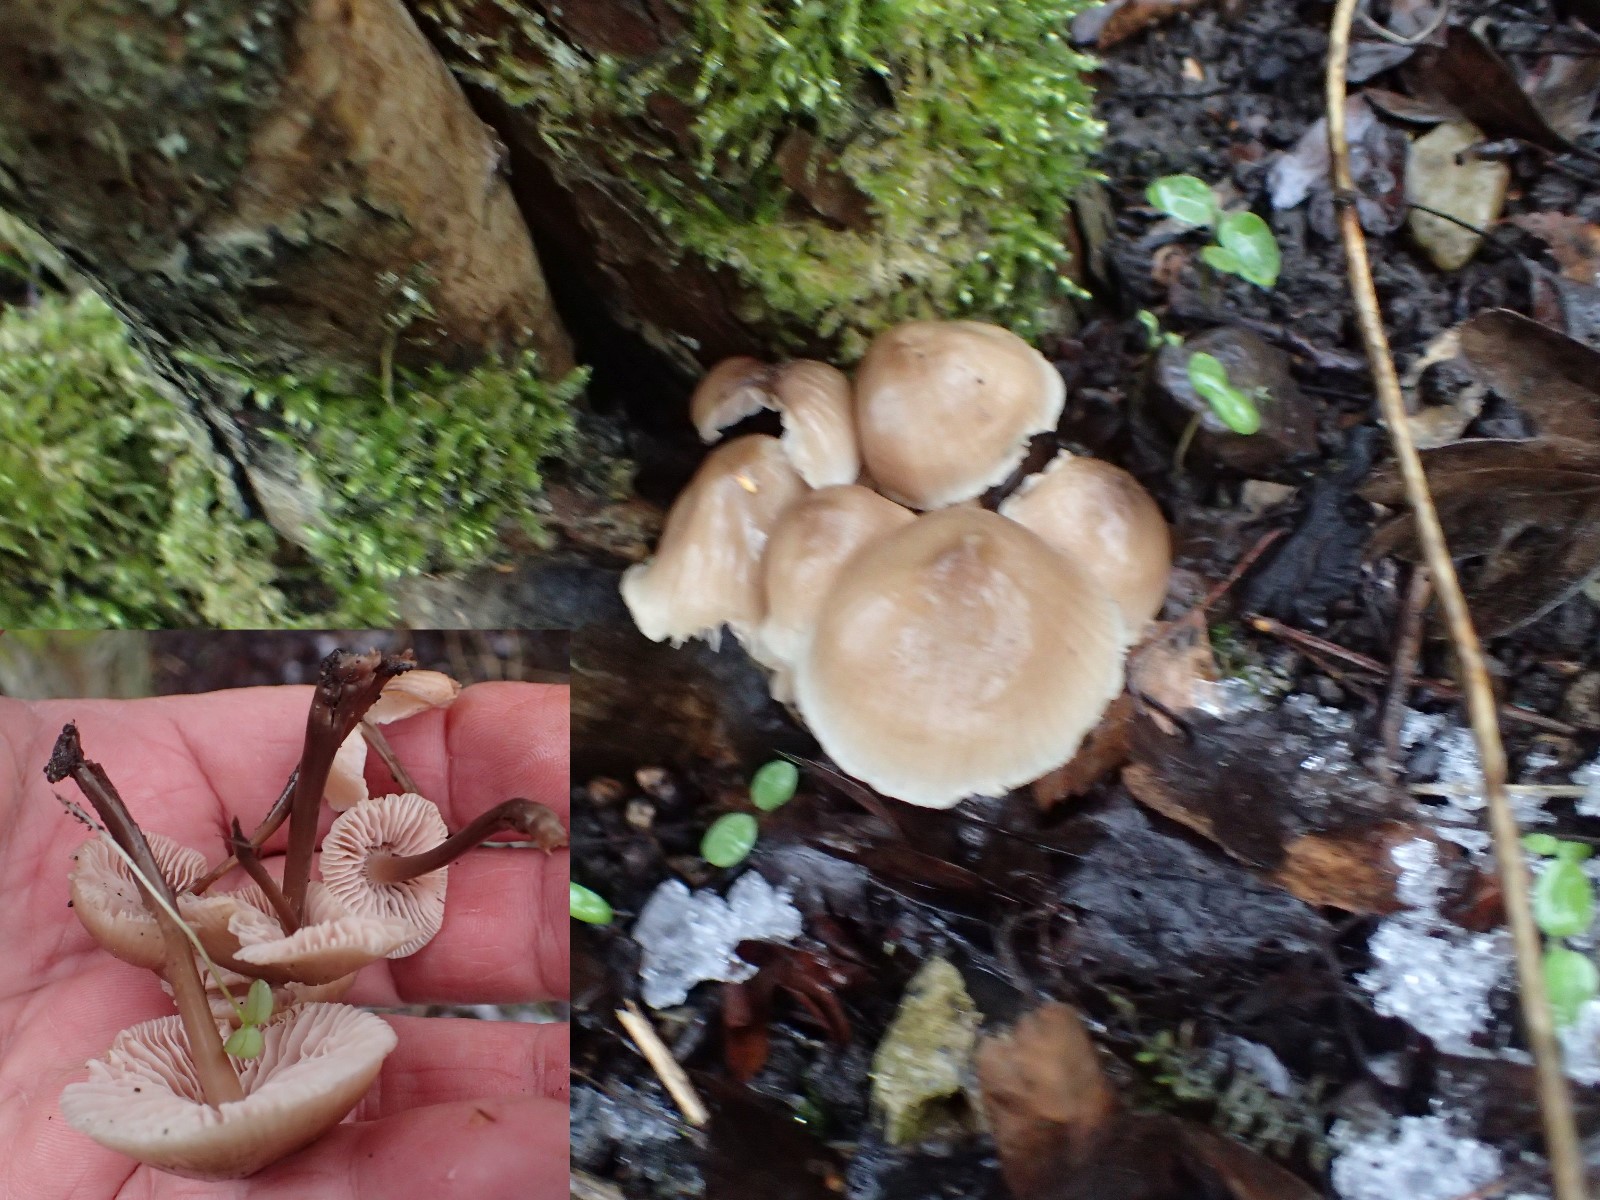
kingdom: Fungi
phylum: Basidiomycota
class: Agaricomycetes
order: Agaricales
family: Mycenaceae
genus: Mycena
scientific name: Mycena galericulata
